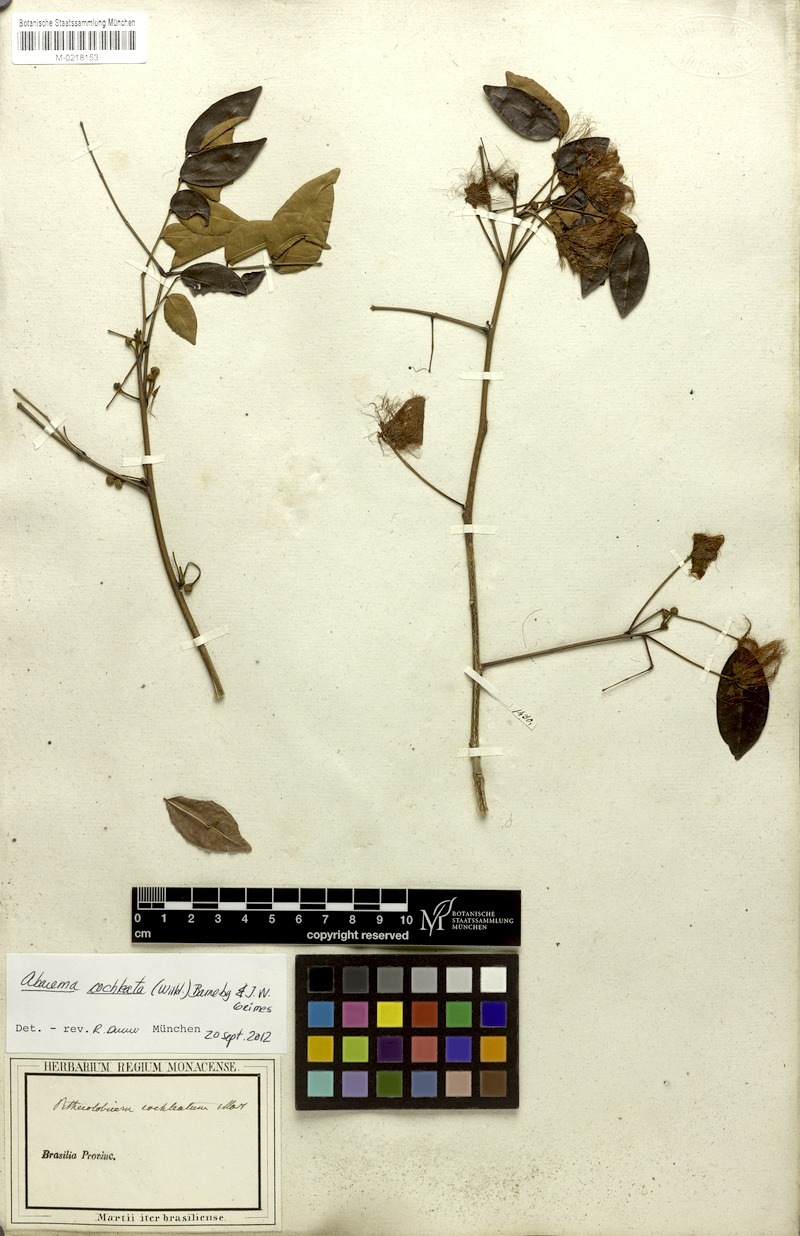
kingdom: Plantae
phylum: Tracheophyta
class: Magnoliopsida
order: Fabales
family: Fabaceae
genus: Jupunba
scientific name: Jupunba cochleata
